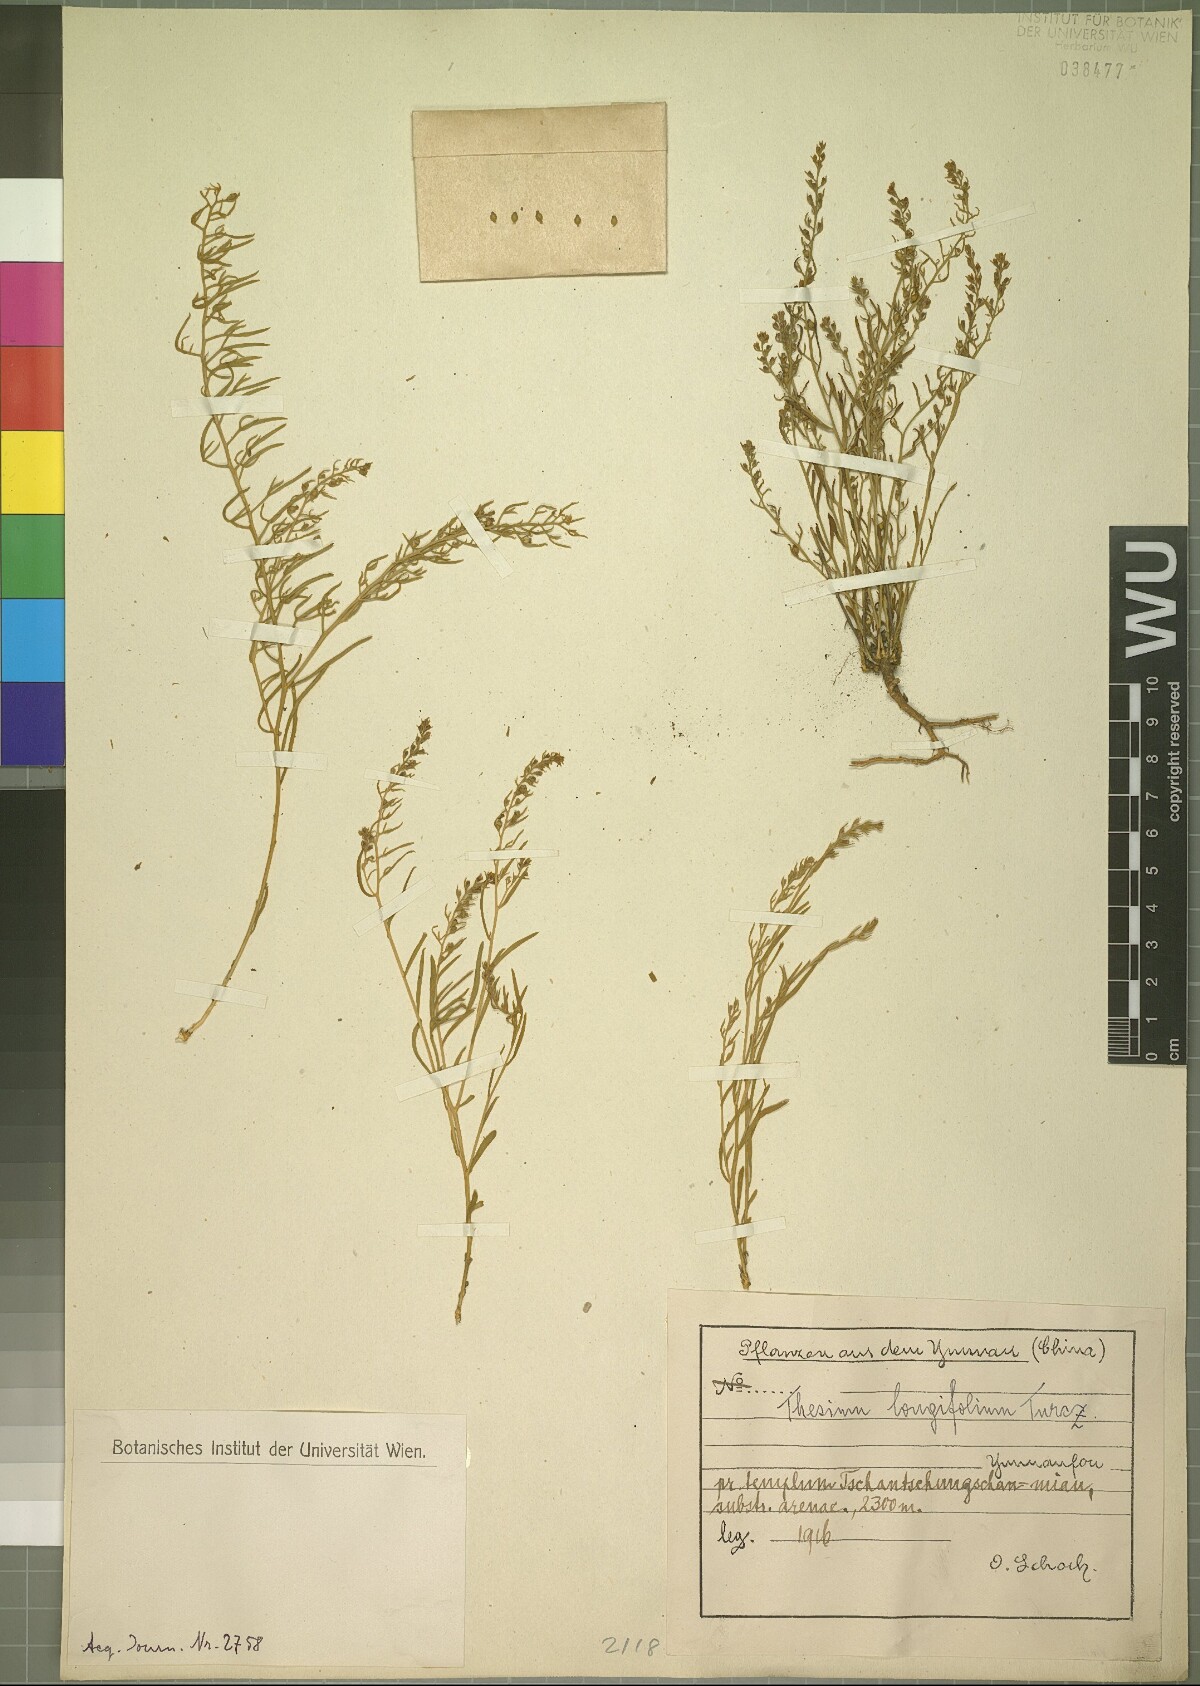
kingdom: Plantae
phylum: Tracheophyta
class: Magnoliopsida
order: Santalales
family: Thesiaceae
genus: Thesium
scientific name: Thesium longifolium
